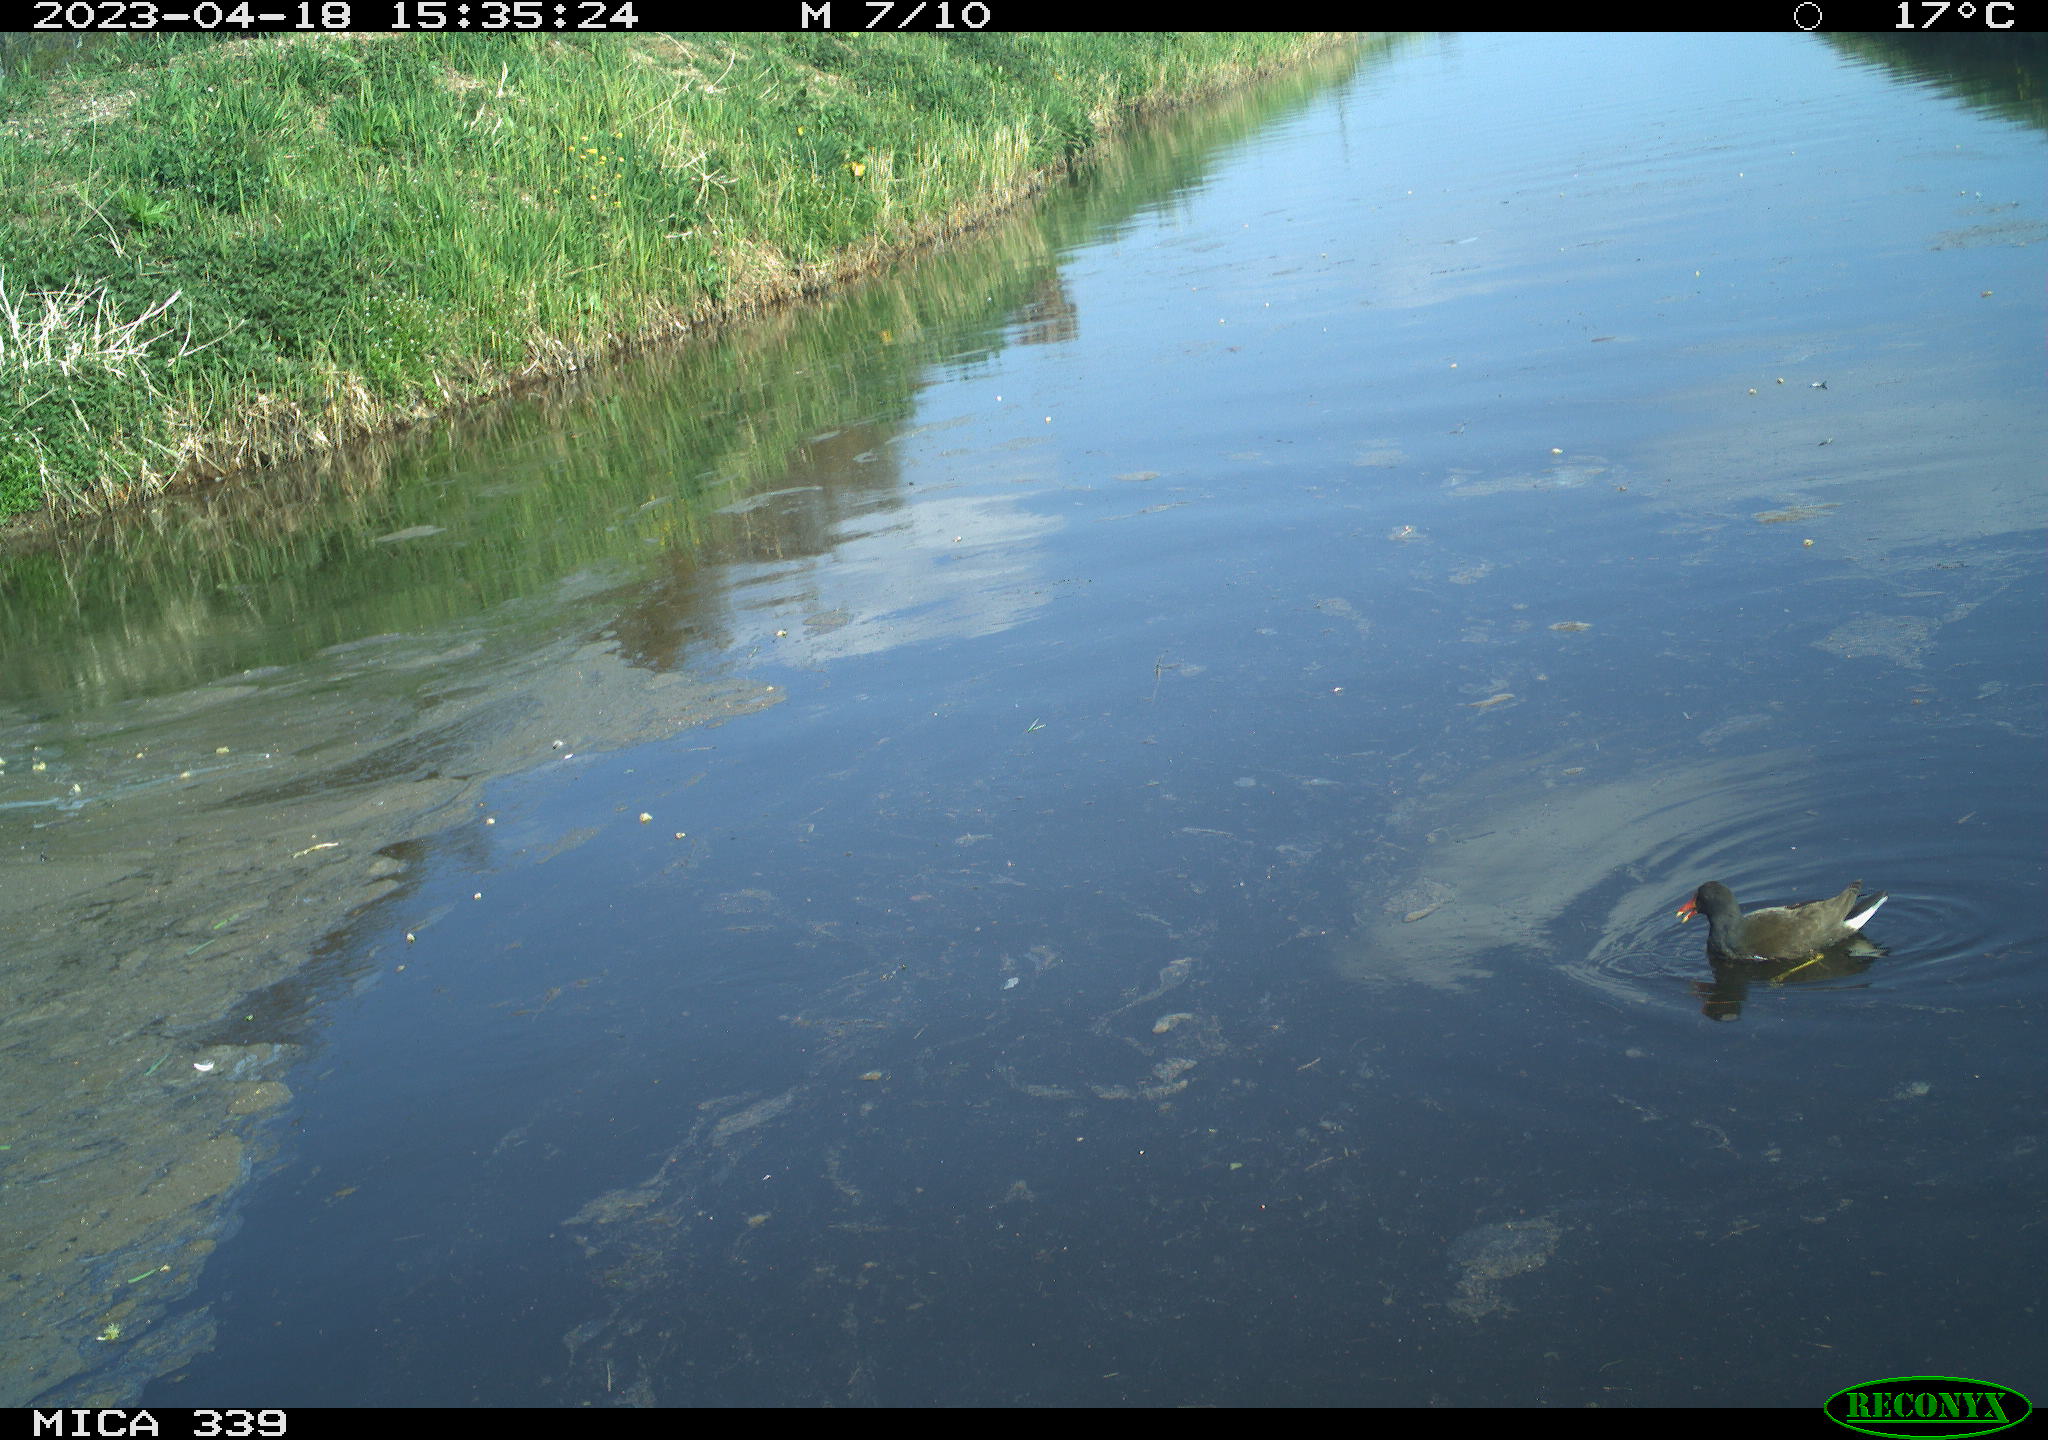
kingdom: Animalia
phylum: Chordata
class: Aves
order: Gruiformes
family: Rallidae
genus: Gallinula
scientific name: Gallinula chloropus
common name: Common moorhen
